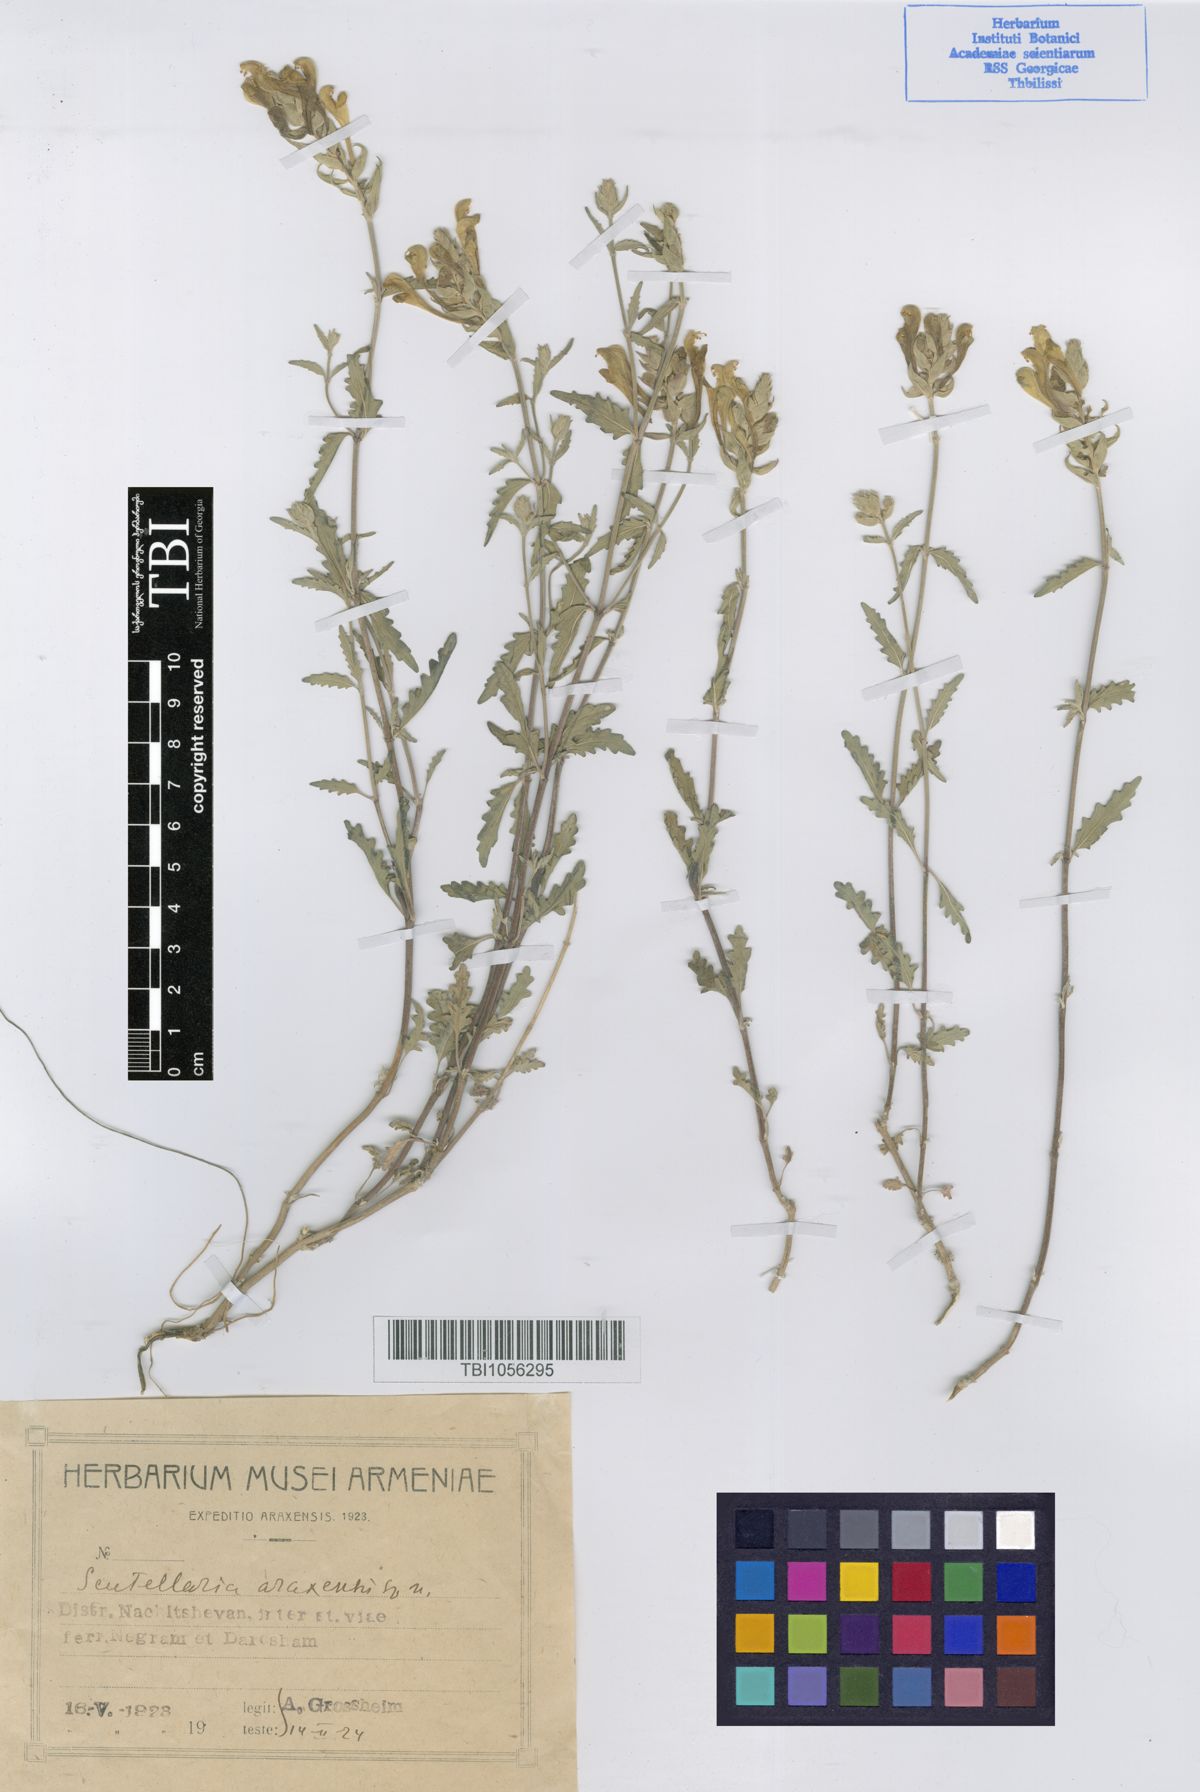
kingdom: Plantae
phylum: Tracheophyta
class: Magnoliopsida
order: Lamiales
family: Lamiaceae
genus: Scutellaria
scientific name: Scutellaria araxensis
